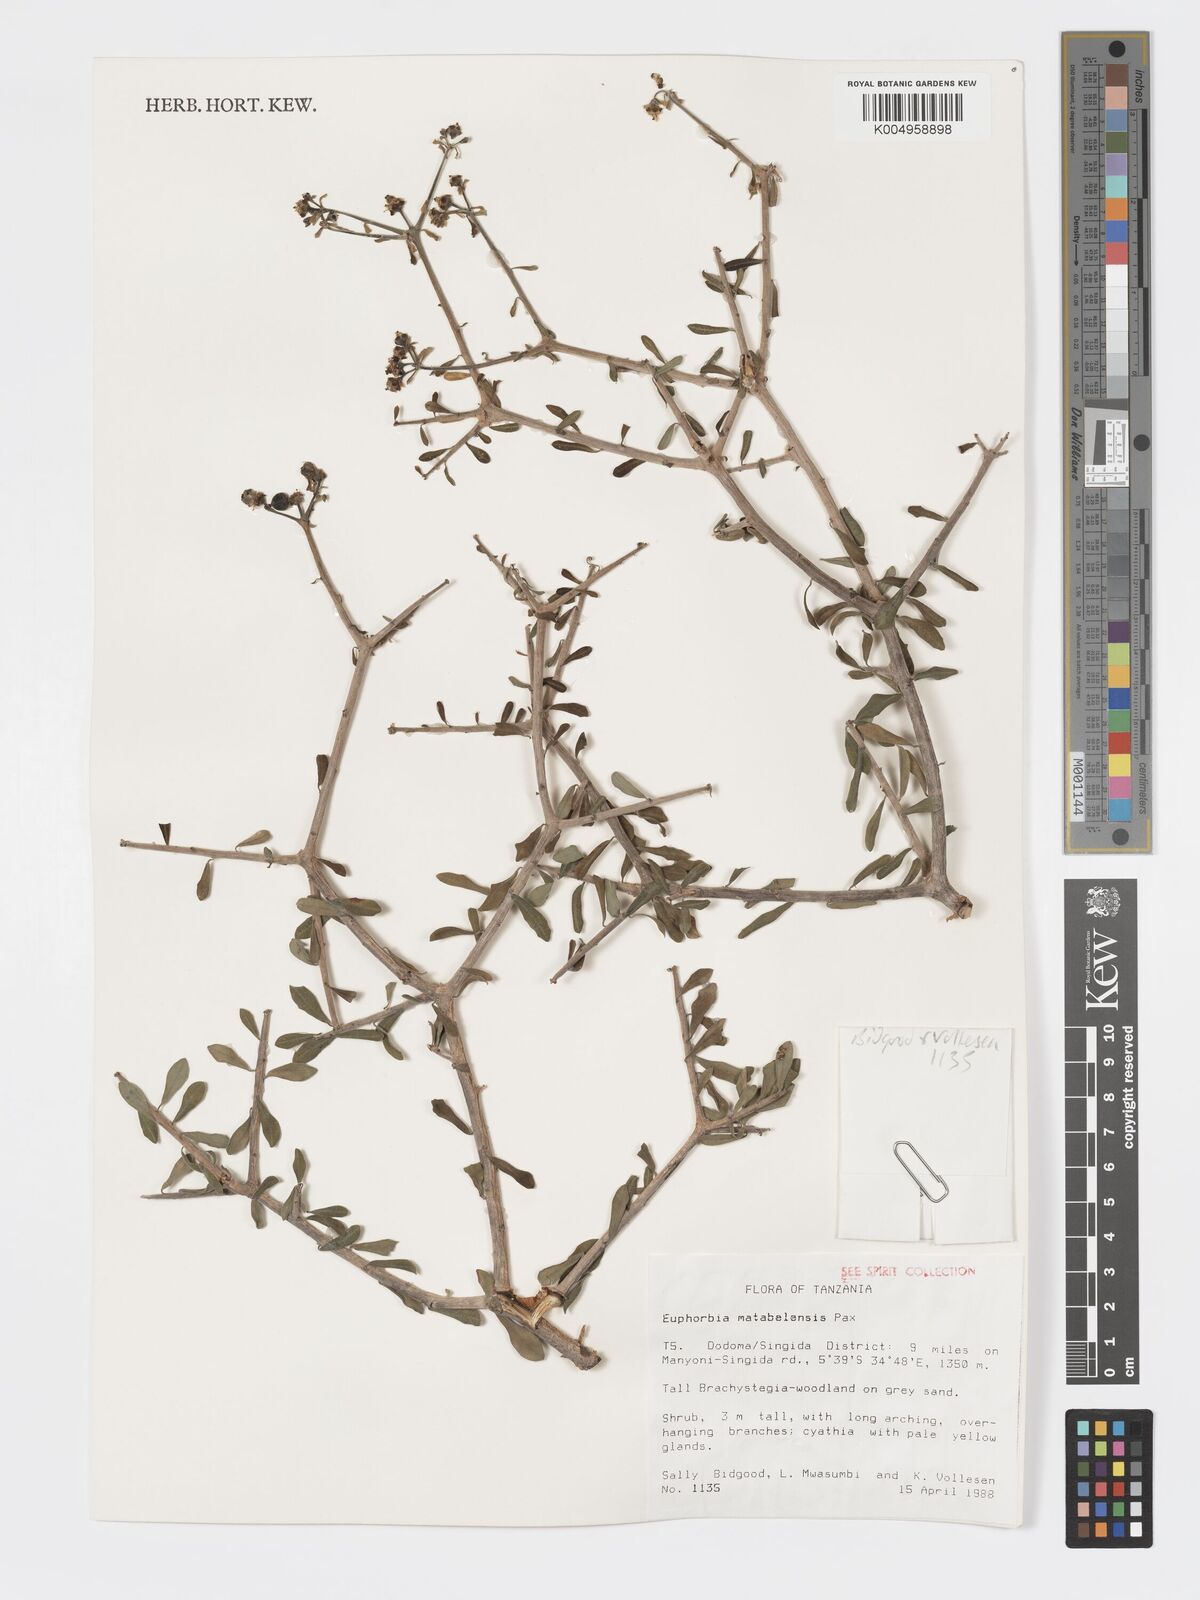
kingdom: Plantae
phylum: Tracheophyta
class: Magnoliopsida
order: Malpighiales
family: Euphorbiaceae
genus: Euphorbia
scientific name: Euphorbia matabelensis
